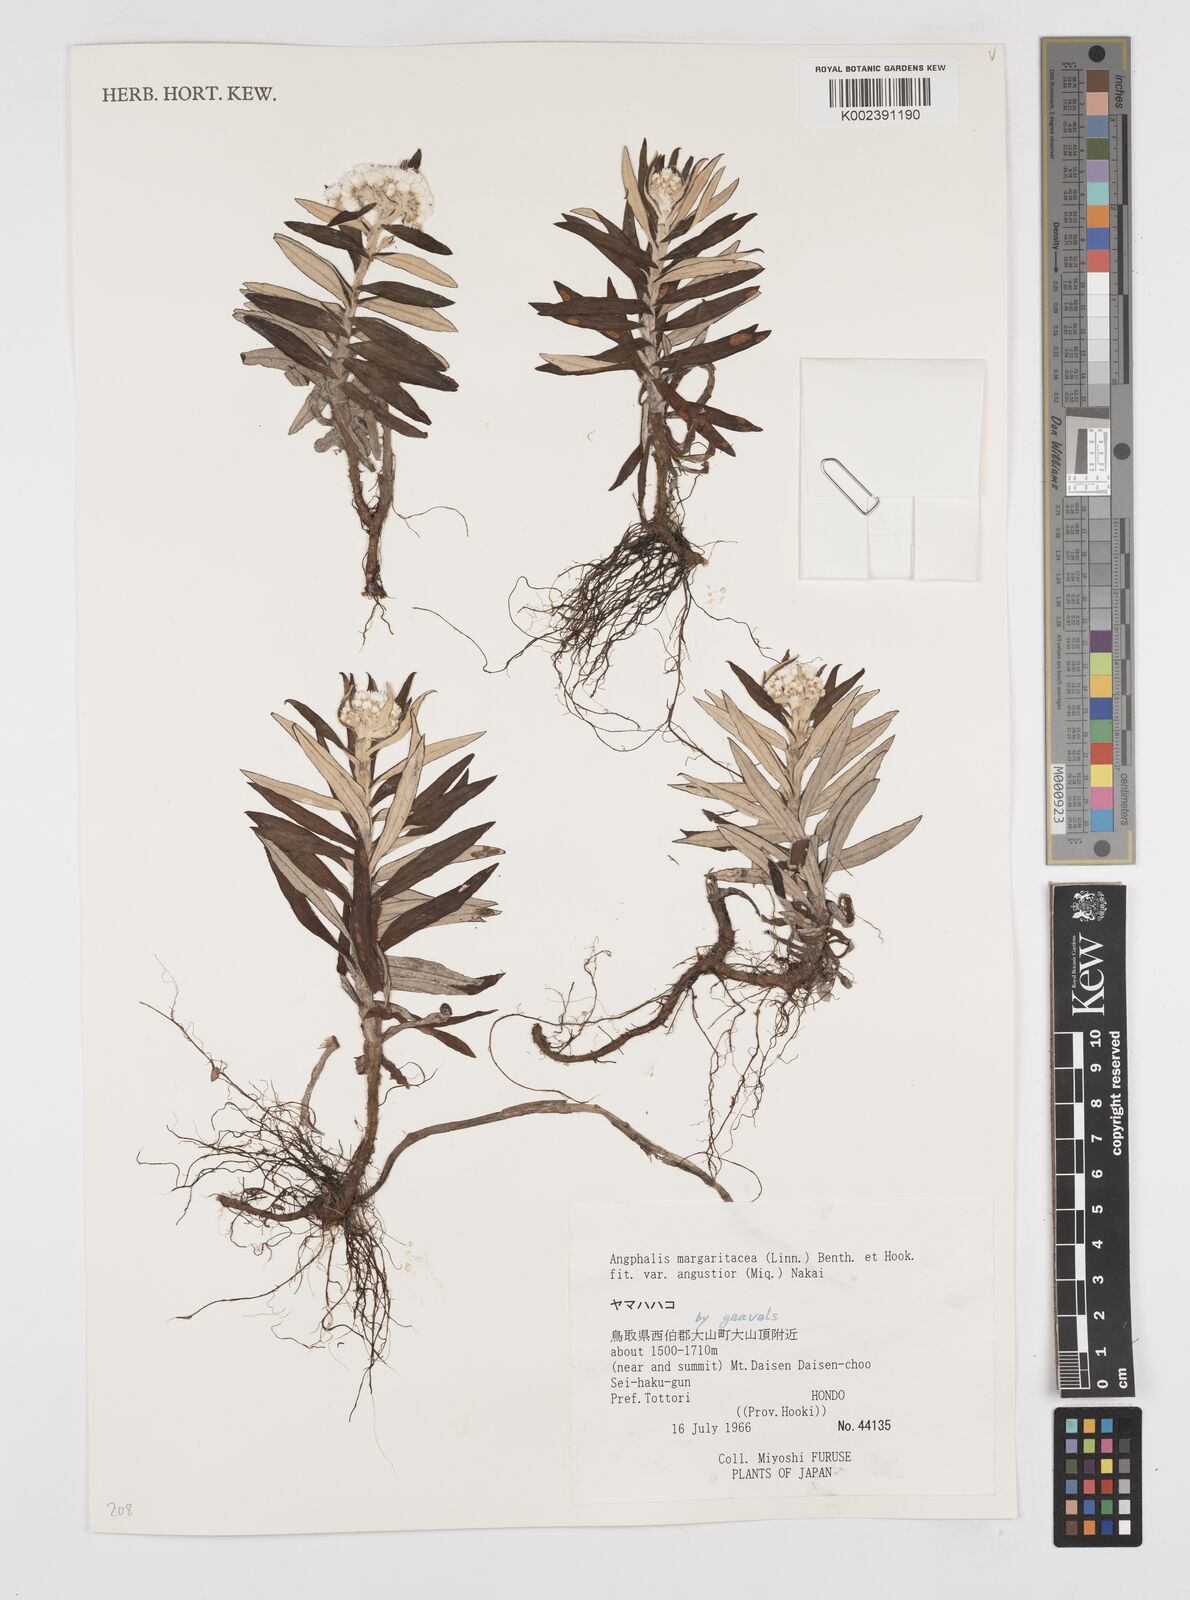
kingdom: Plantae
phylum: Tracheophyta
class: Magnoliopsida
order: Asterales
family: Asteraceae
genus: Anaphalis
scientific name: Anaphalis margaritacea
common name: Pearly everlasting
